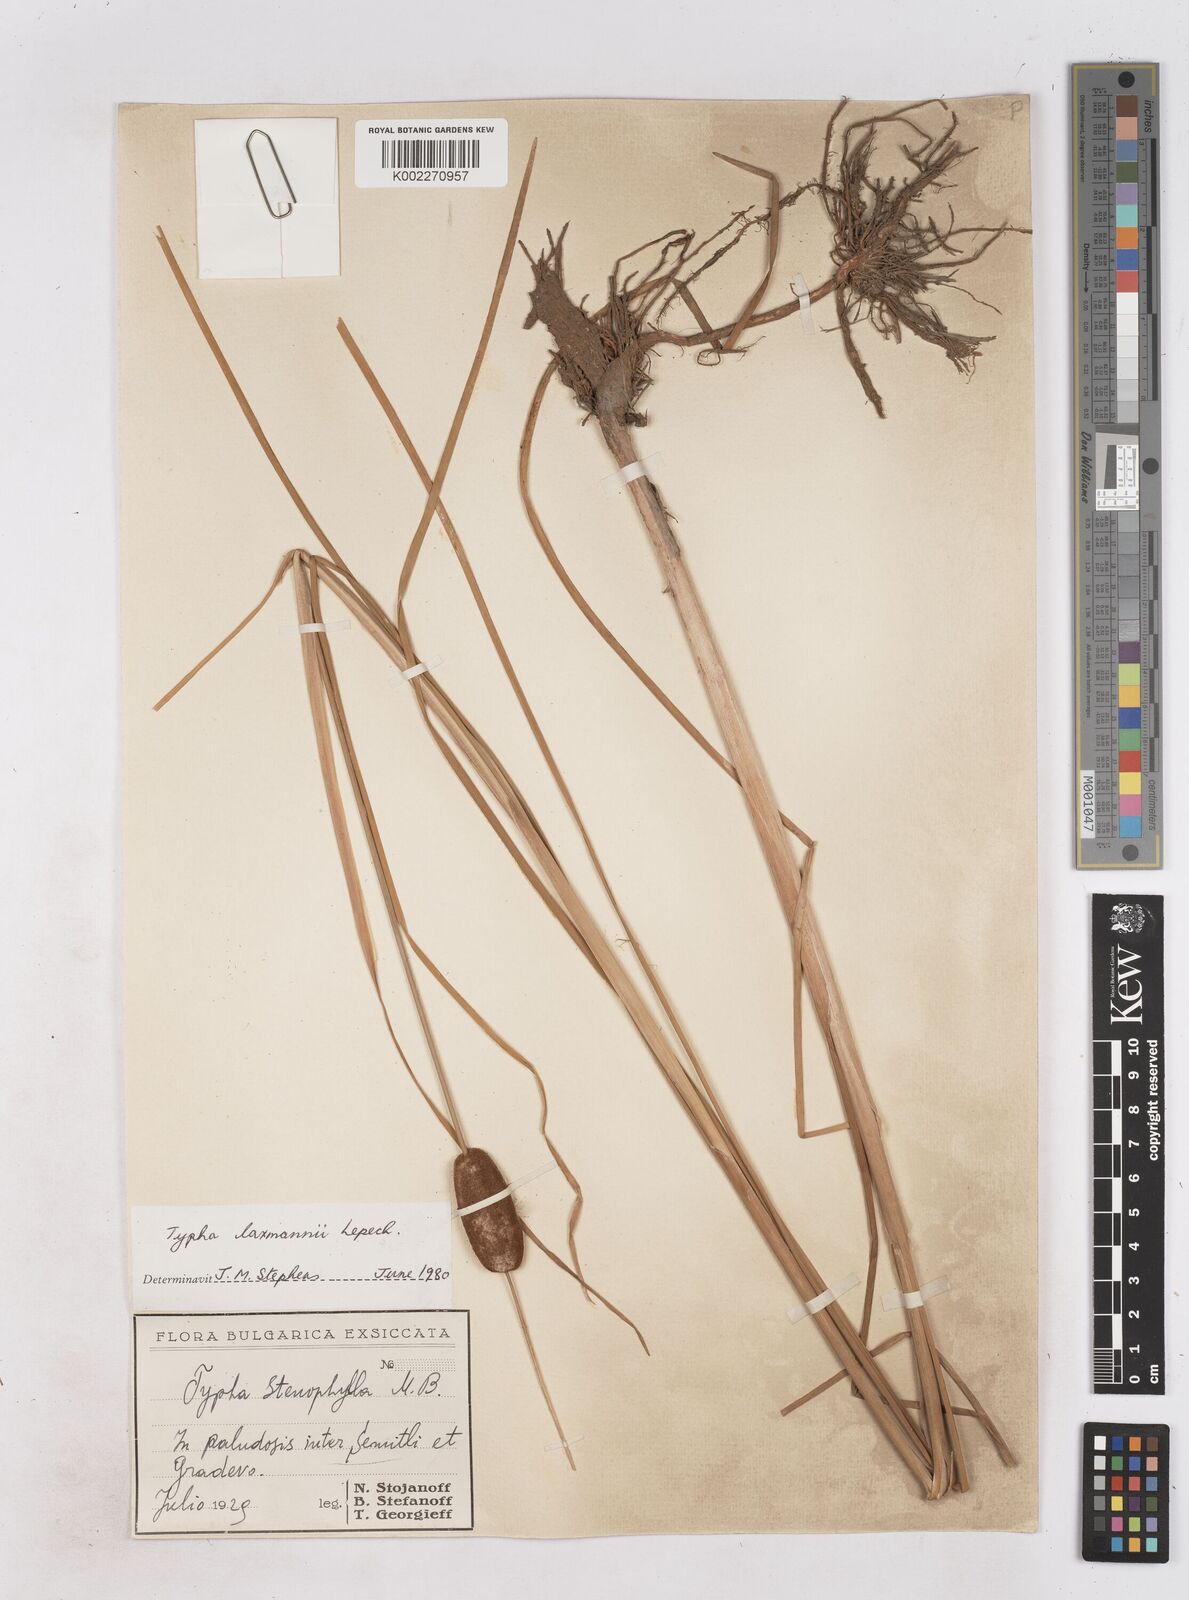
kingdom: Plantae
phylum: Tracheophyta
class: Liliopsida
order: Poales
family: Typhaceae
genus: Typha
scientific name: Typha laxmannii
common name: Laxman’s bulrush
